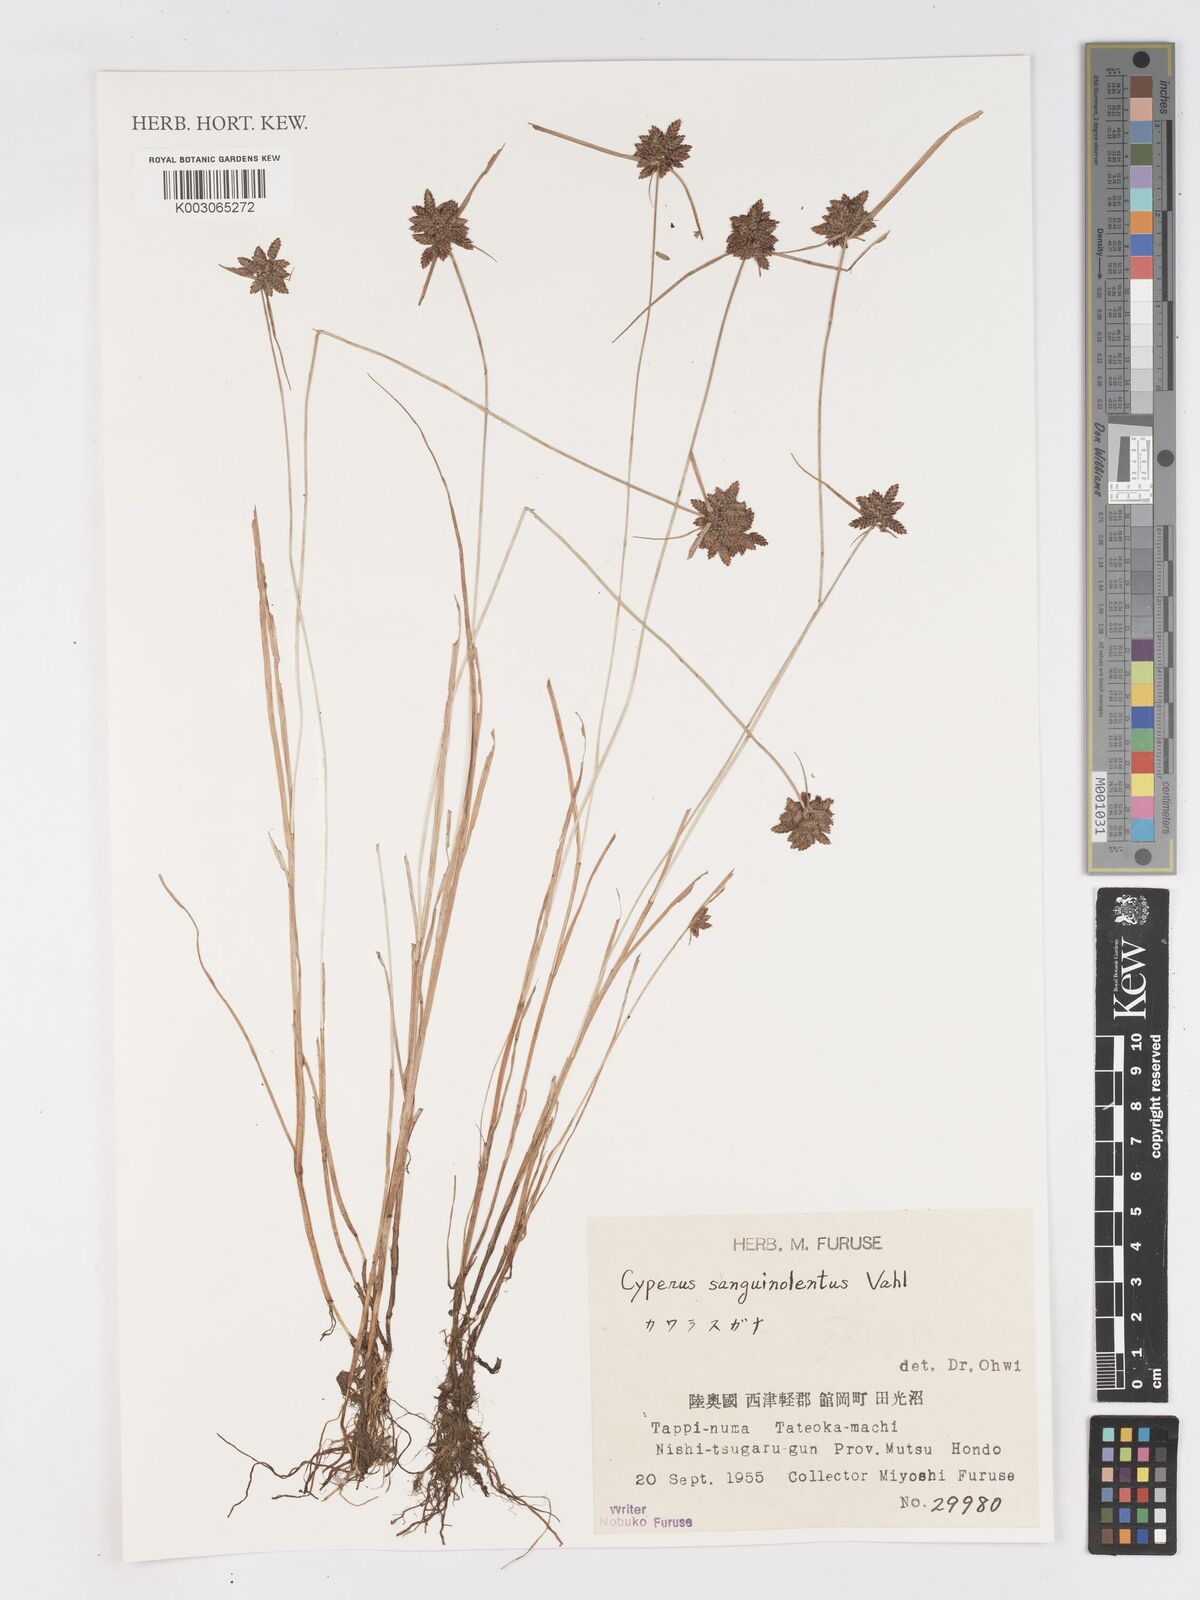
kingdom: Plantae
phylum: Tracheophyta
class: Liliopsida
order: Poales
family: Cyperaceae
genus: Cyperus
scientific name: Cyperus sanguinolentus
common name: Purpleglume flatsedge
